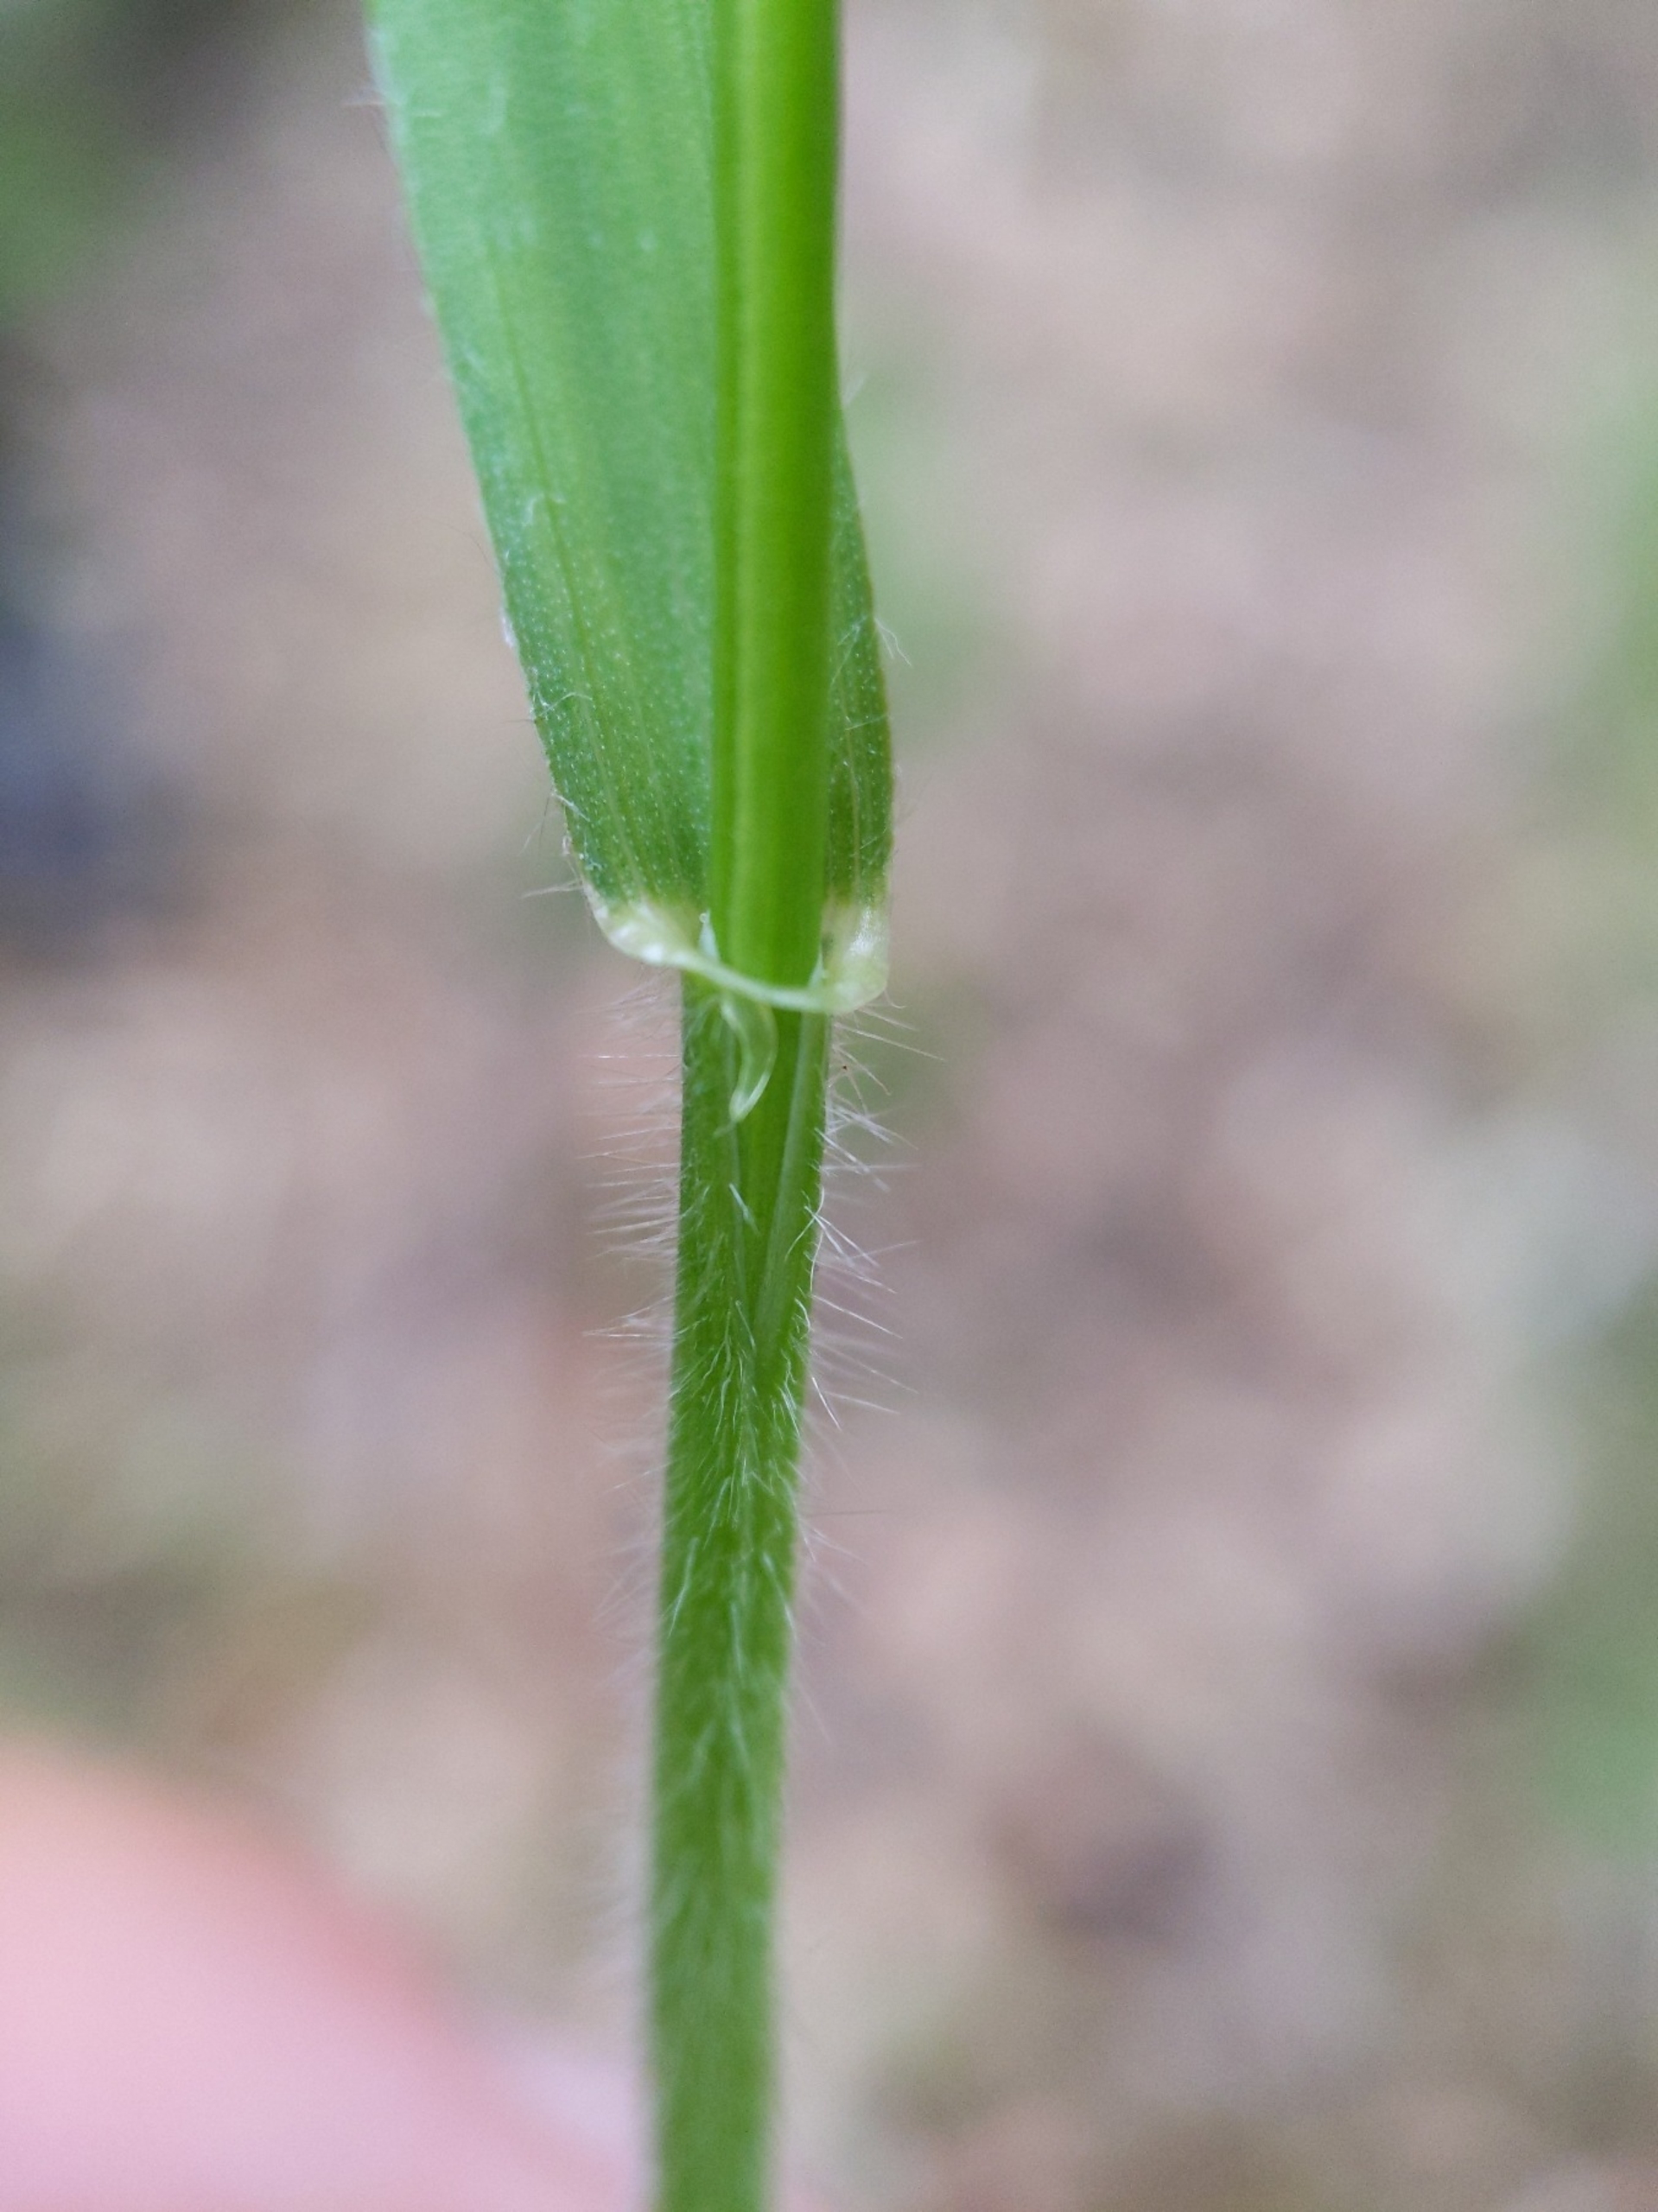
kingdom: Plantae
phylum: Tracheophyta
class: Liliopsida
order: Poales
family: Poaceae
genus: Hordelymus
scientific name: Hordelymus europaeus
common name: Skovbyg
